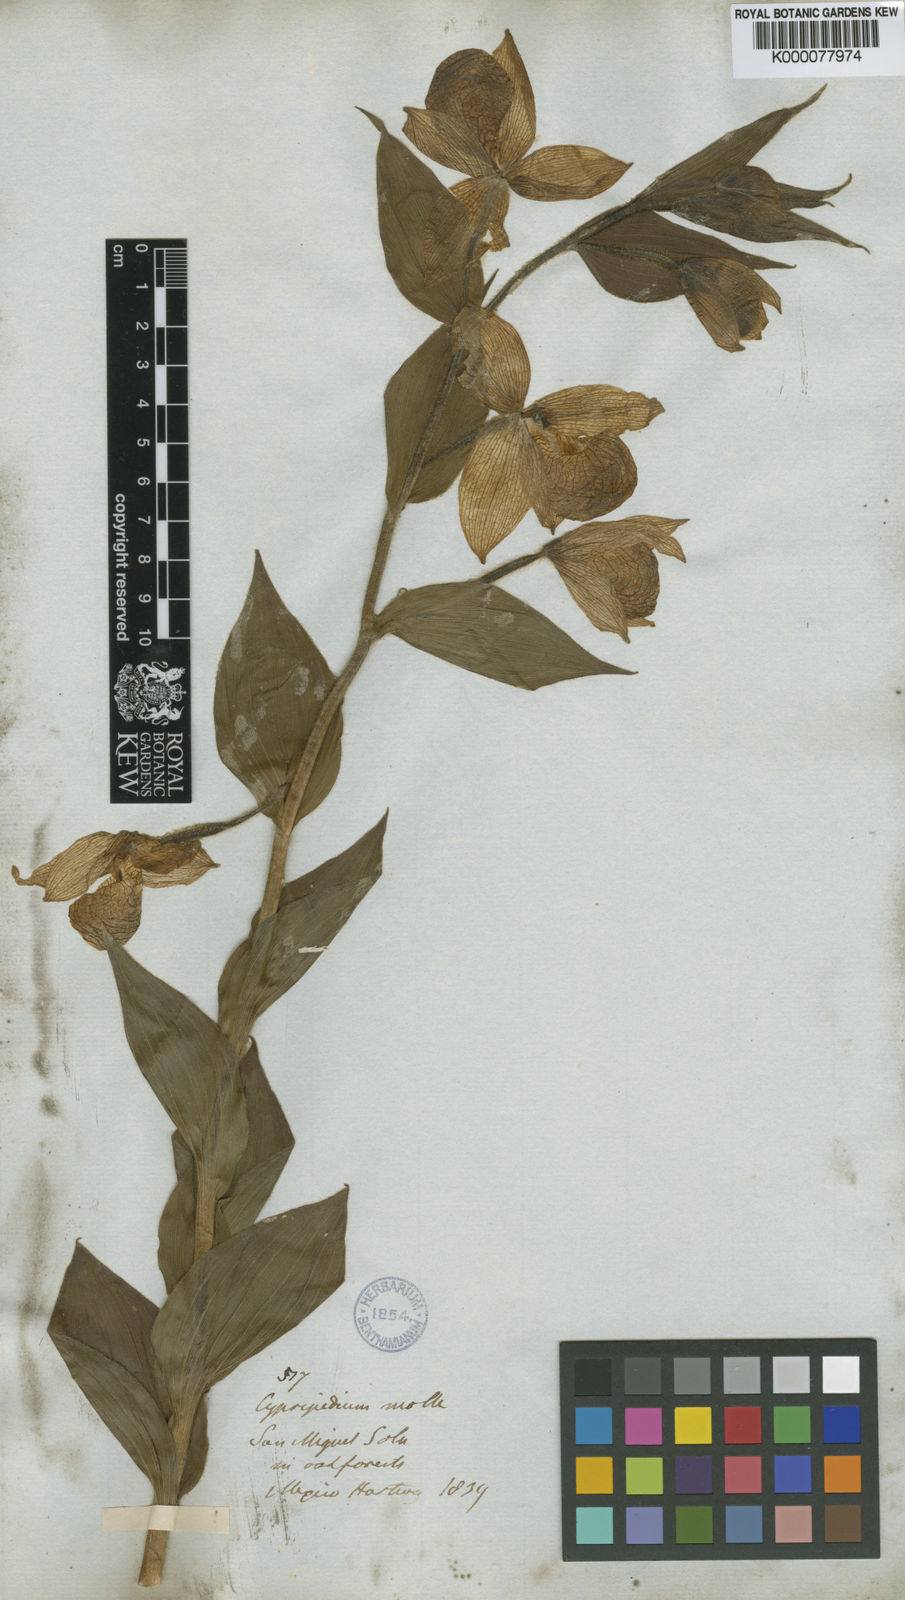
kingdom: Plantae
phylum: Tracheophyta
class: Liliopsida
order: Asparagales
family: Orchidaceae
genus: Cypripedium
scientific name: Cypripedium molle
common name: Soft cypripedium
